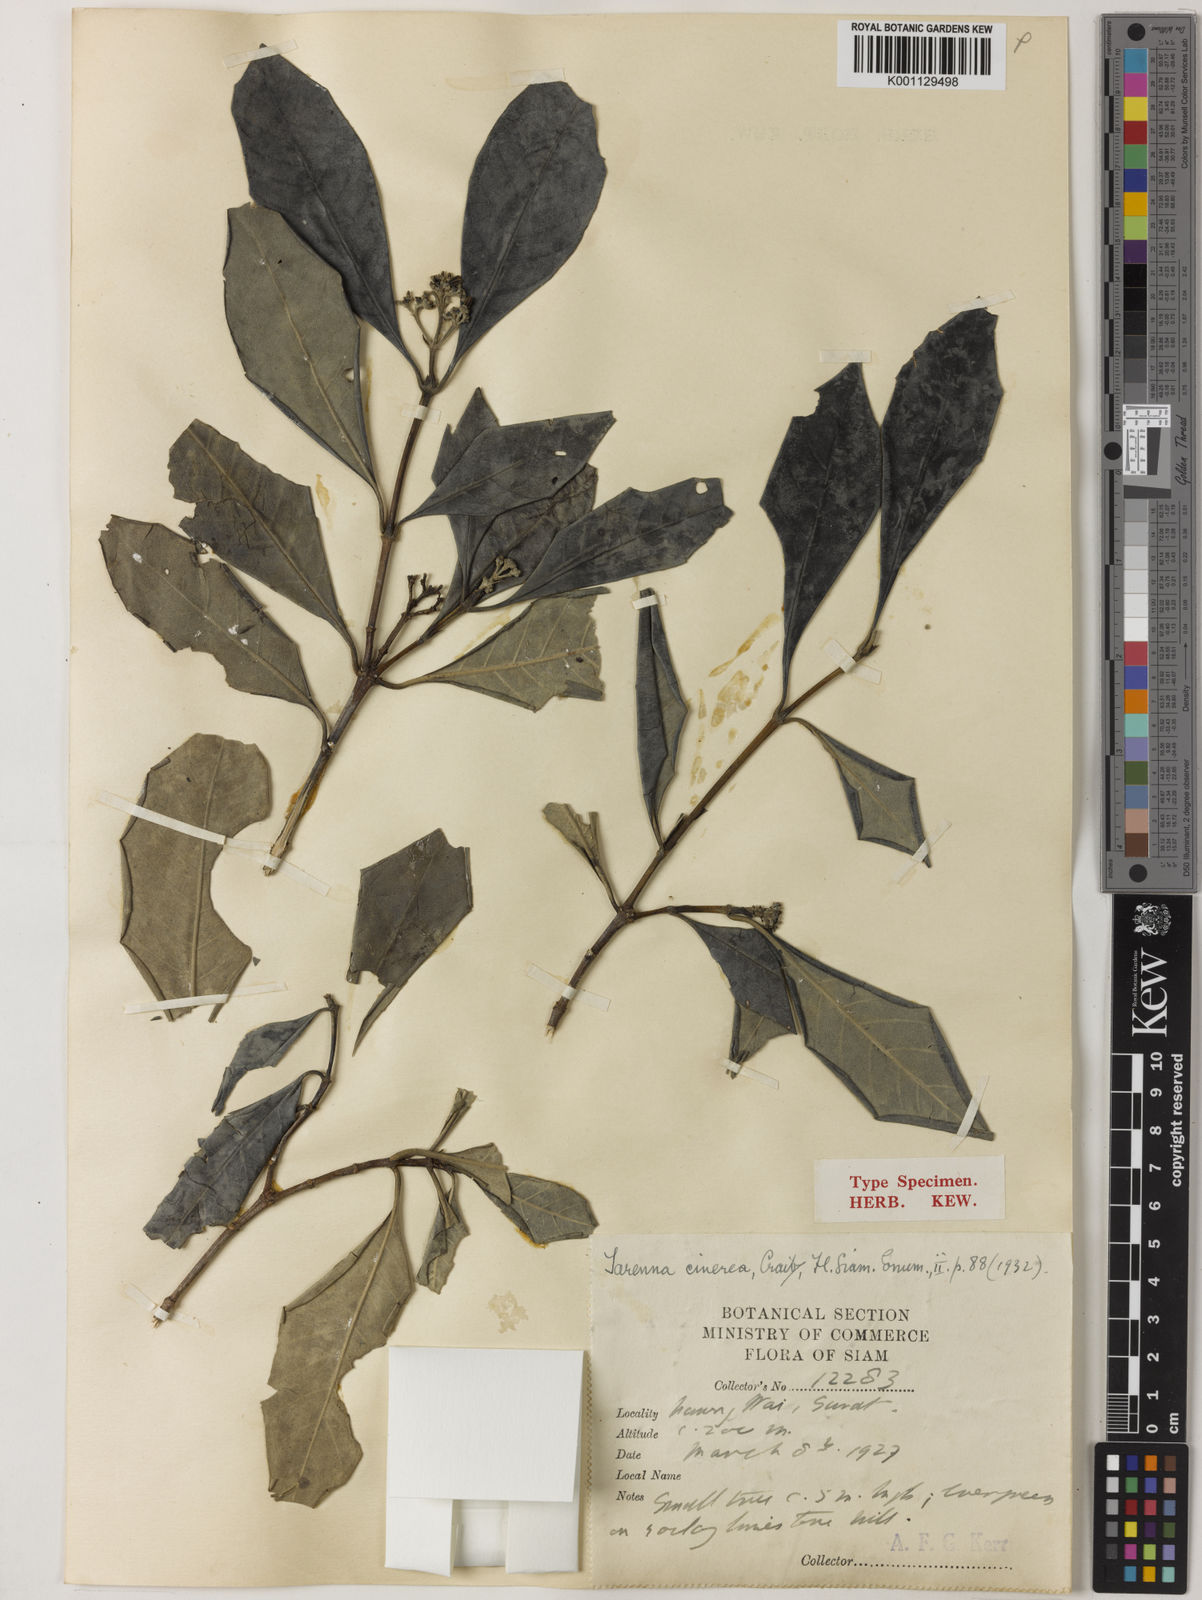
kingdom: Plantae
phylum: Tracheophyta
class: Magnoliopsida
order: Gentianales
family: Rubiaceae
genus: Tarenna
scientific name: Tarenna cinerea
